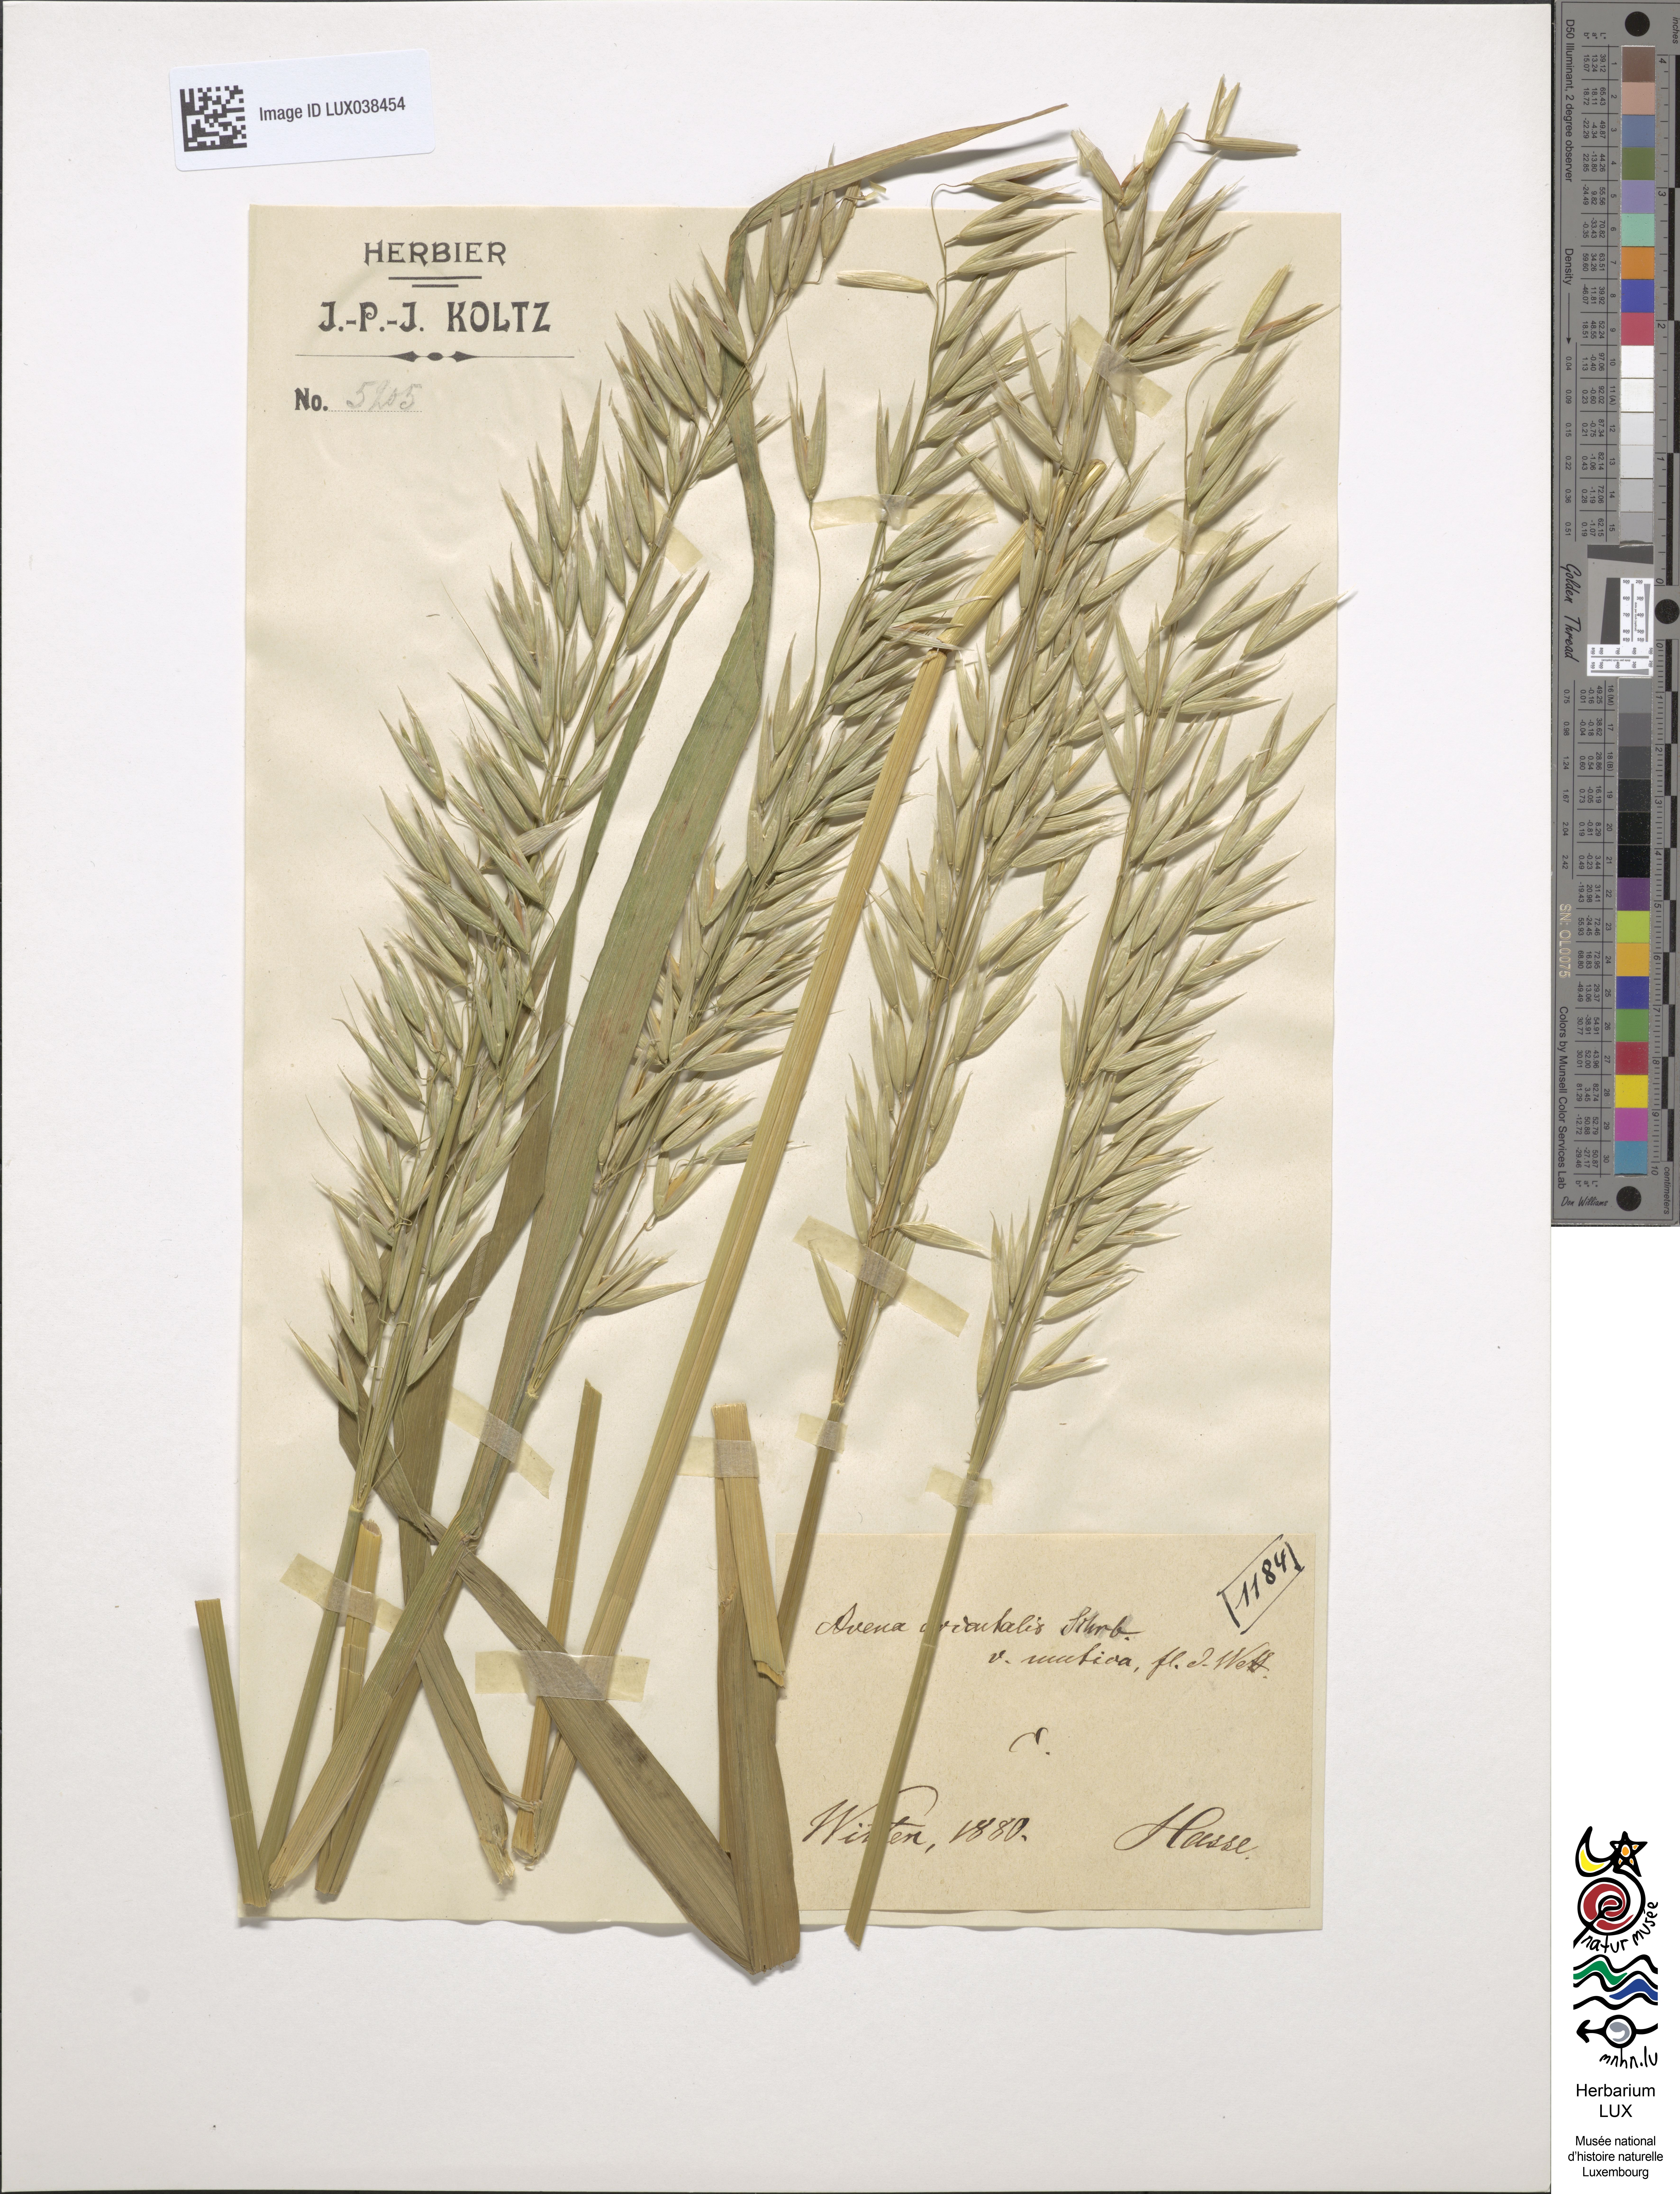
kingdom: Plantae
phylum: Tracheophyta
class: Liliopsida
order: Poales
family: Poaceae
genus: Avena
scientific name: Avena sativa
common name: Oat
